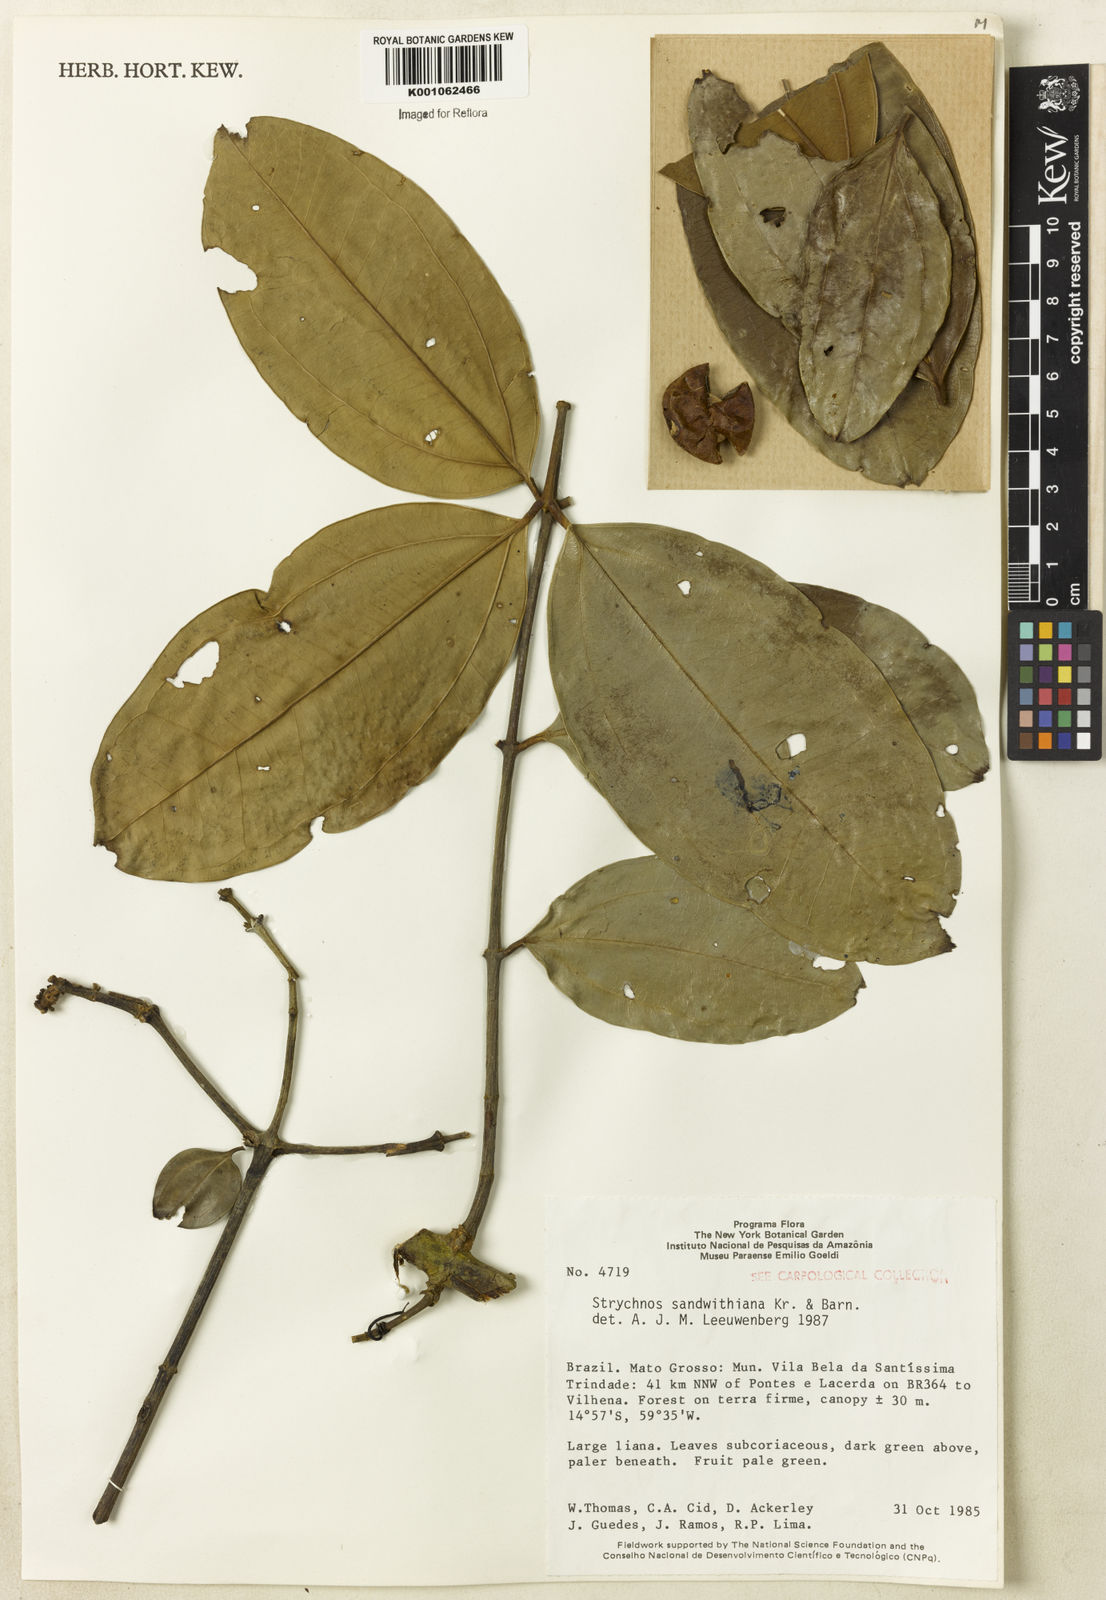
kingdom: Plantae
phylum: Tracheophyta
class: Magnoliopsida
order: Gentianales
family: Loganiaceae
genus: Strychnos
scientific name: Strychnos sandwithiana
